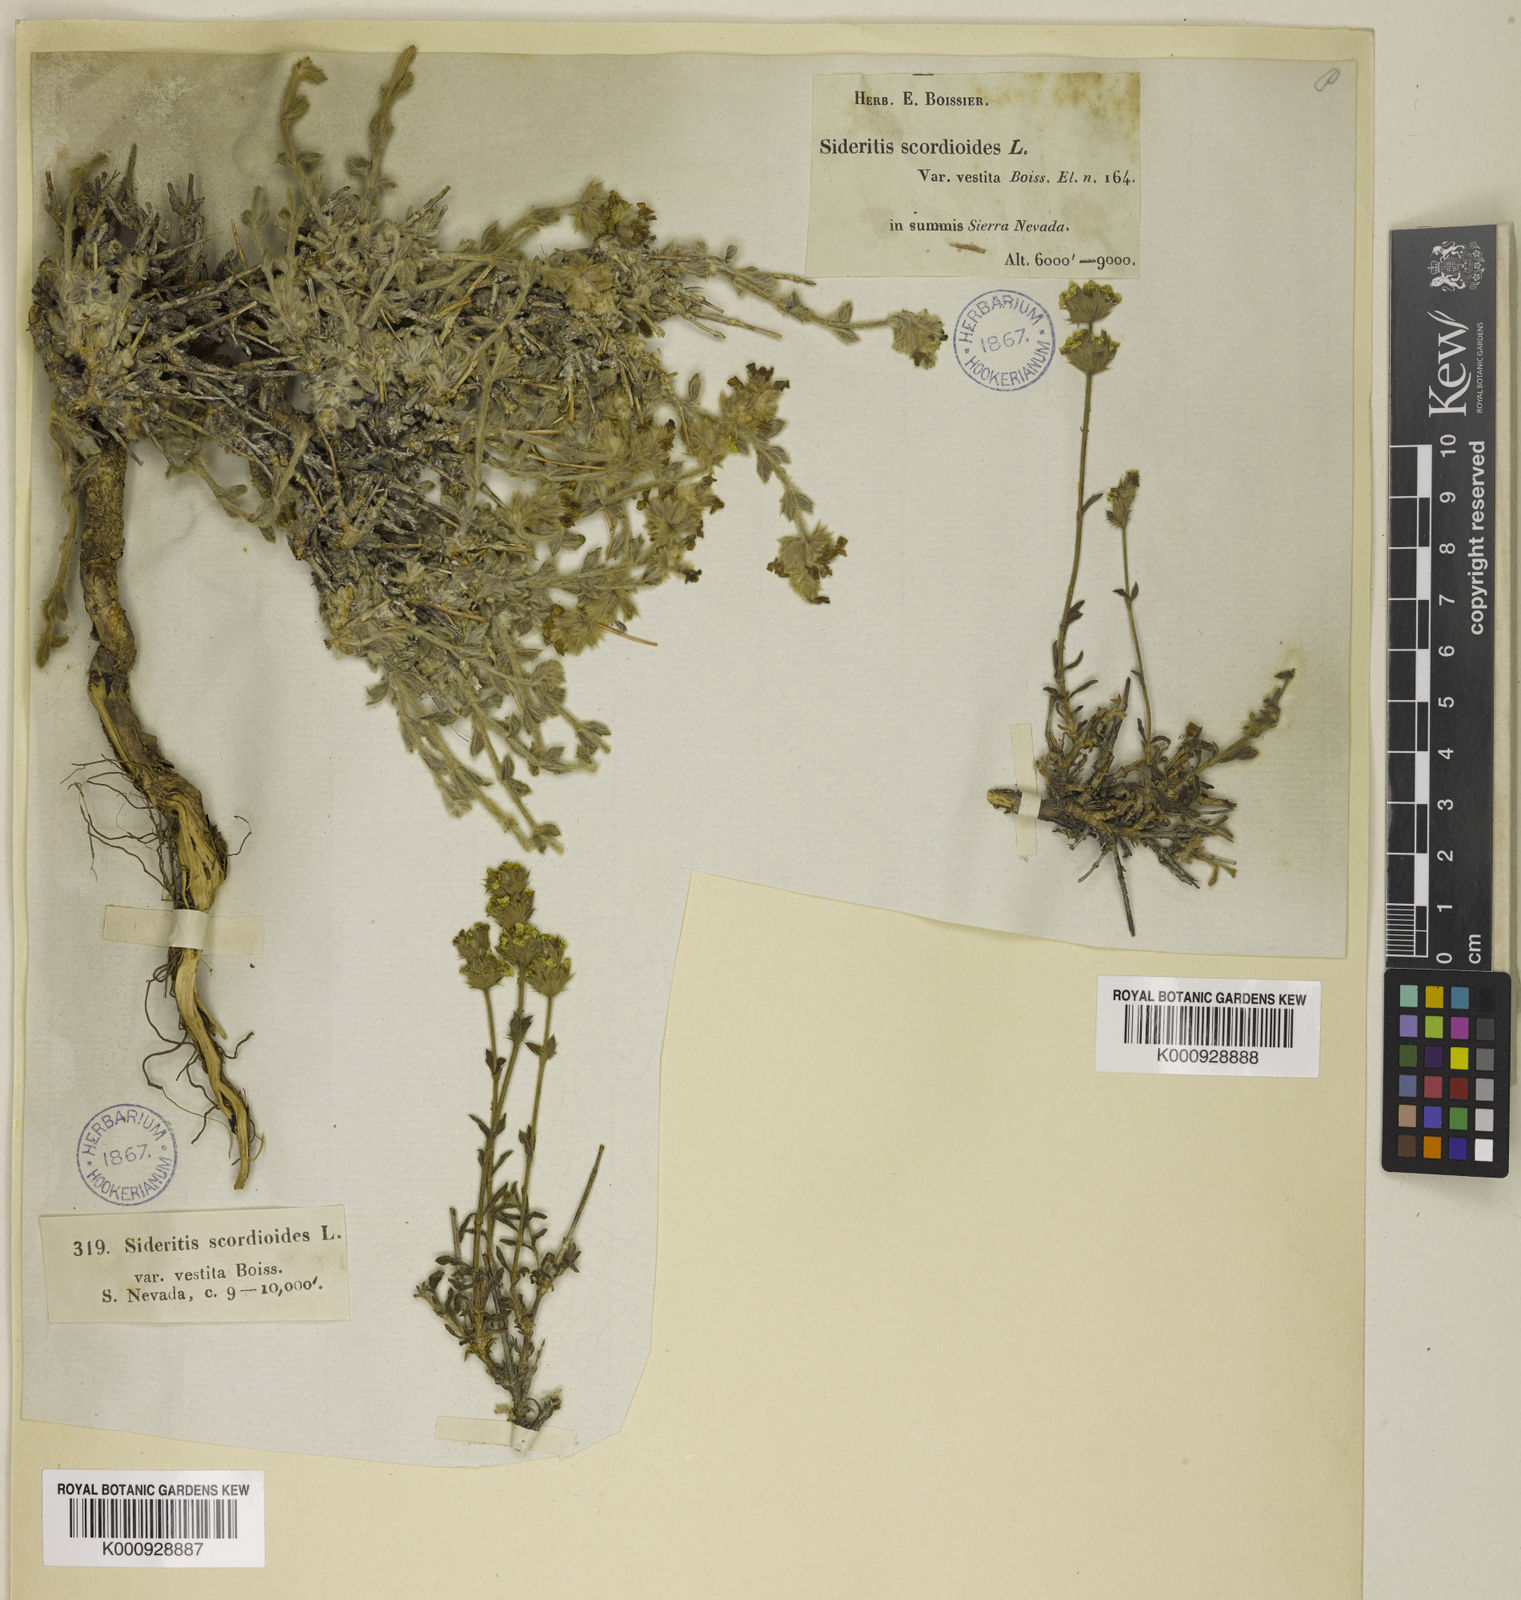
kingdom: Plantae
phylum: Tracheophyta
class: Magnoliopsida
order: Lamiales
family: Lamiaceae
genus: Sideritis
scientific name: Sideritis glacialis
